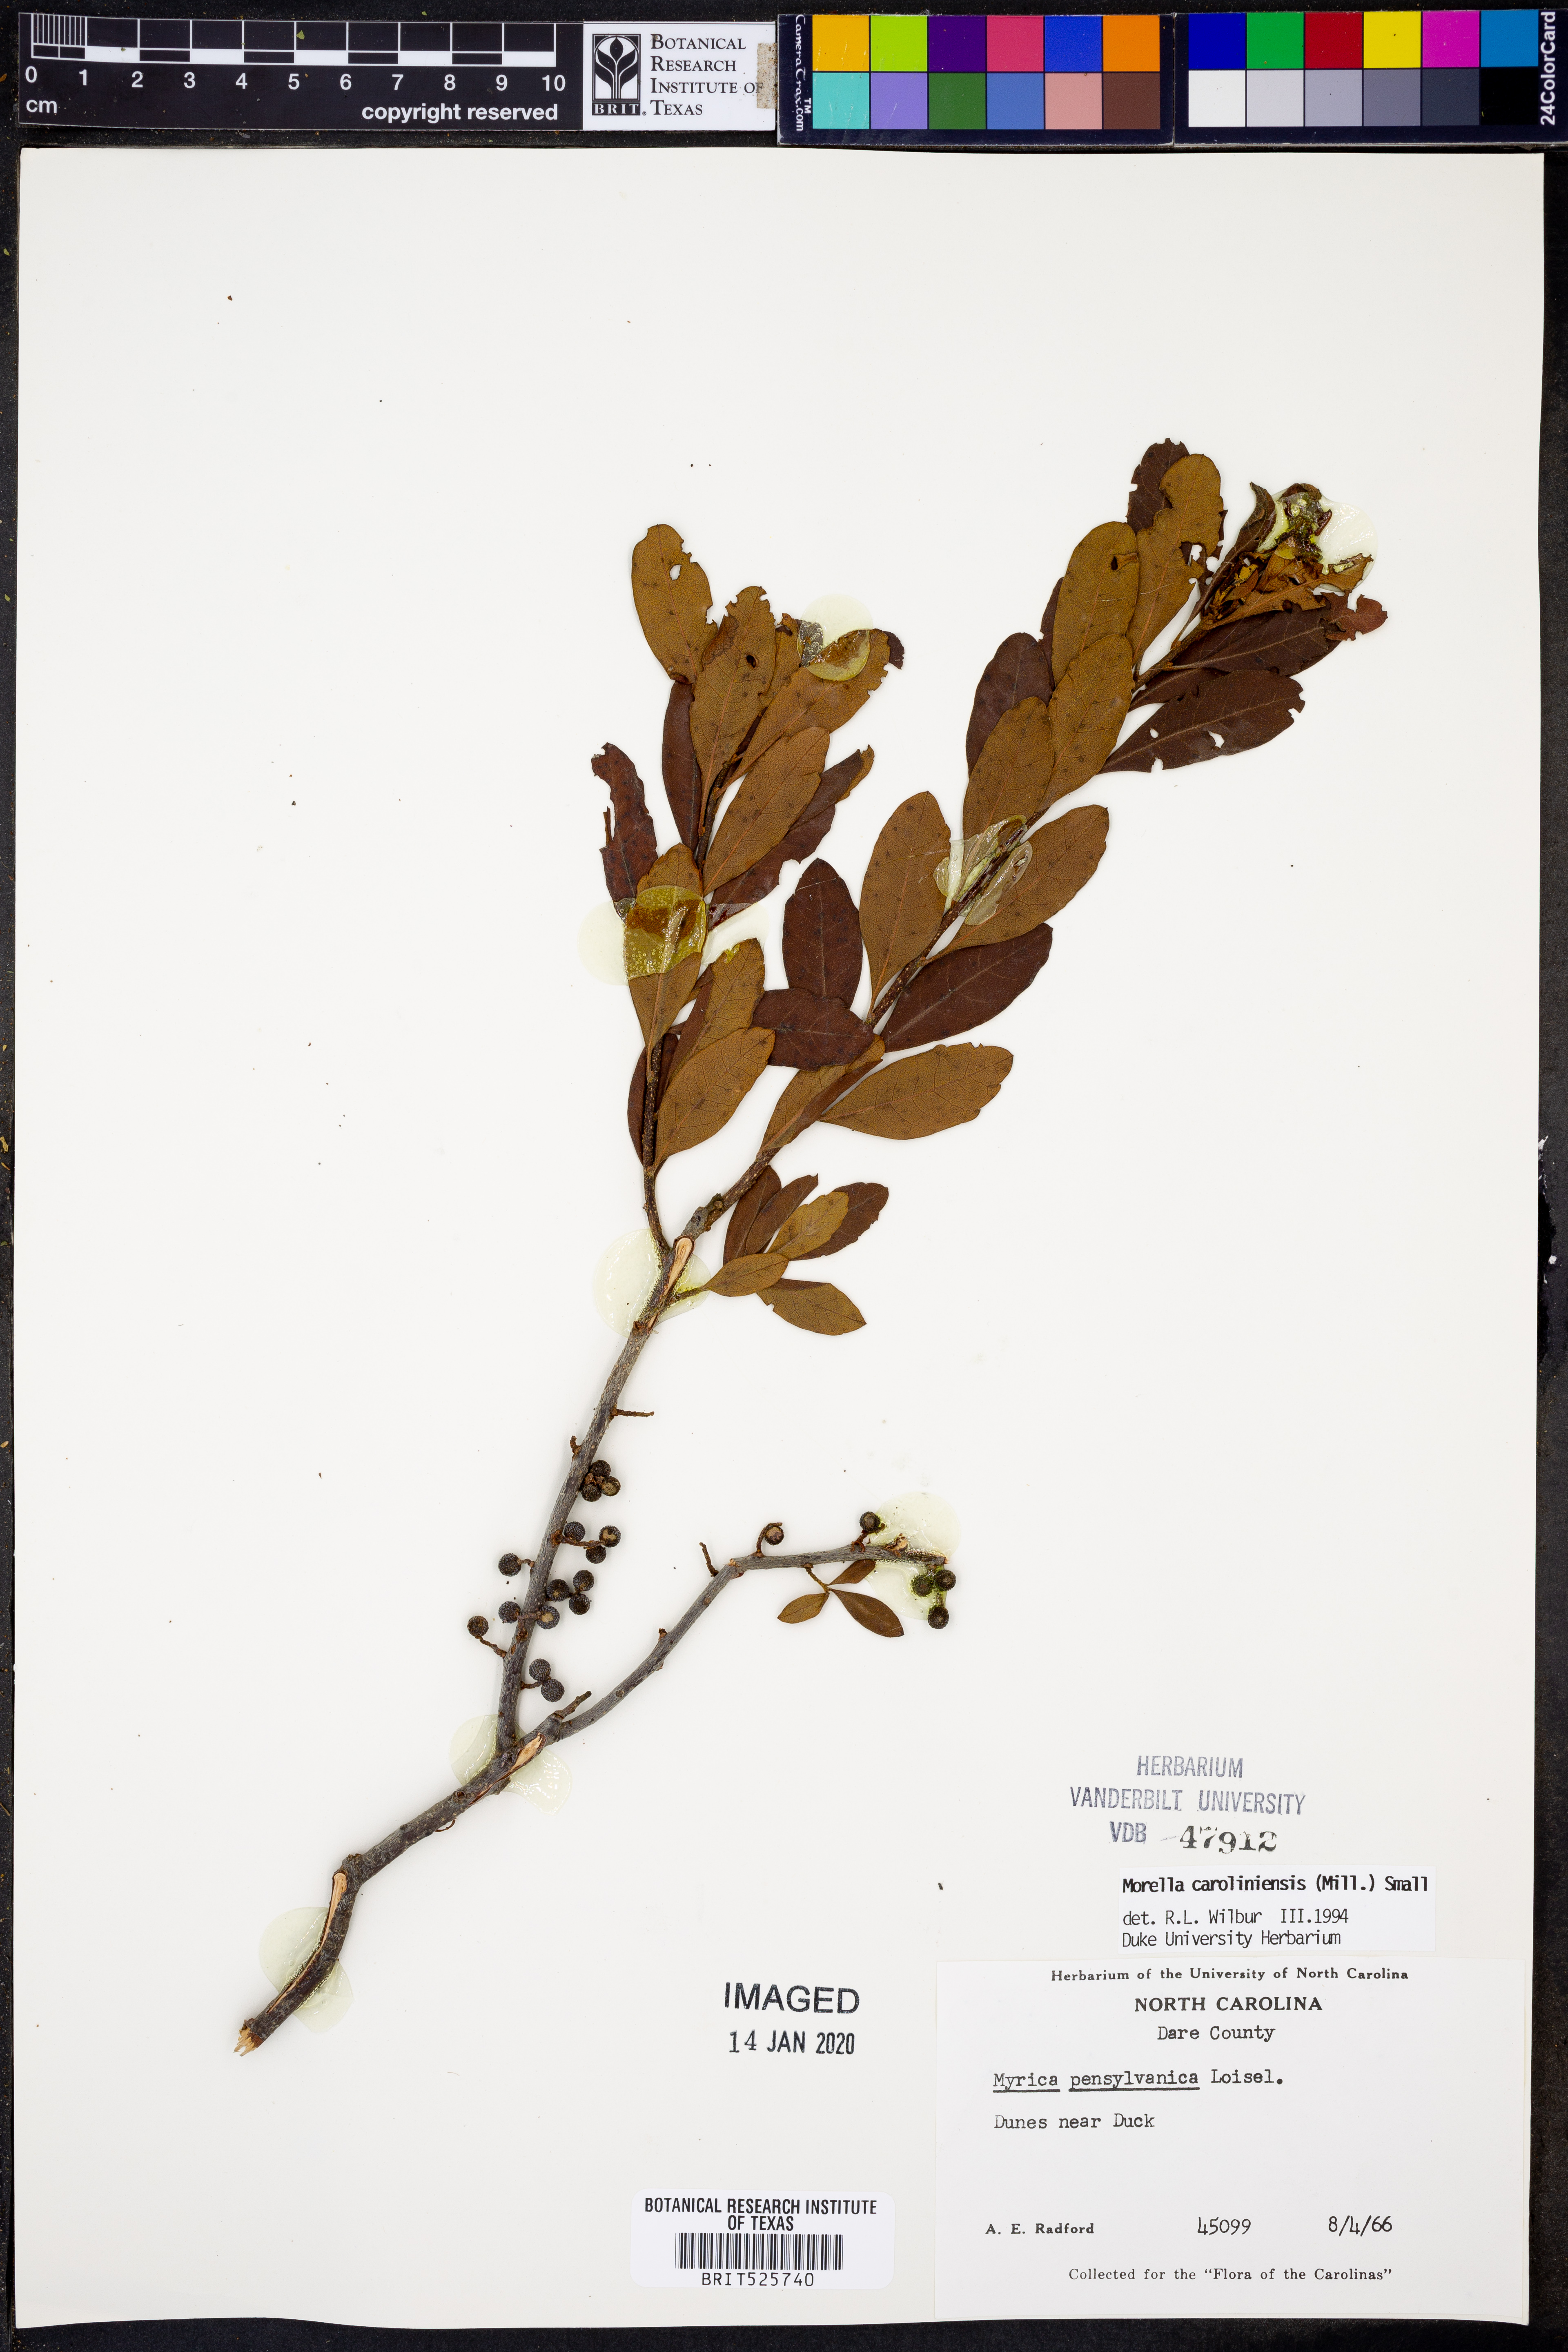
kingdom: Plantae
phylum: Tracheophyta
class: Magnoliopsida
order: Fagales
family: Myricaceae
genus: Morella
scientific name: Morella caroliniensis
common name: Evergreen bayberry
